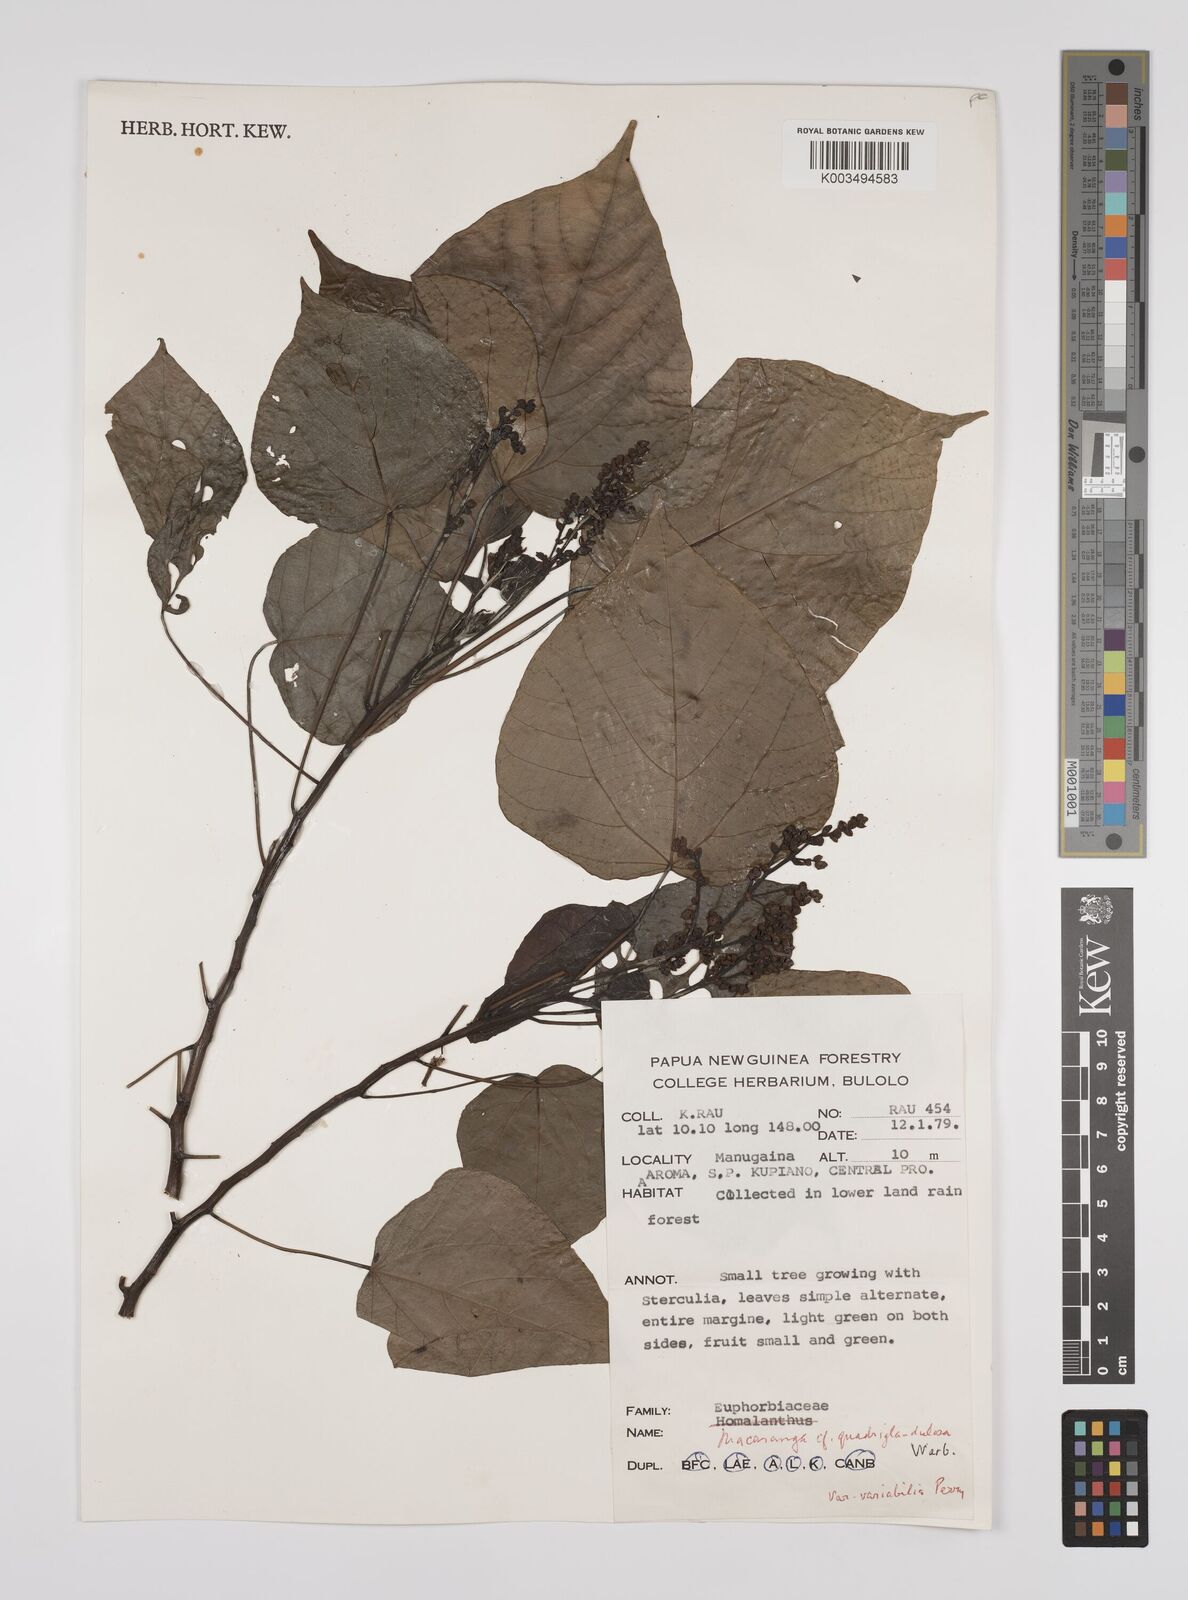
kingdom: Plantae
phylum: Tracheophyta
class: Magnoliopsida
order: Malpighiales
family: Euphorbiaceae
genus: Macaranga
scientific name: Macaranga quadriglandulosa
